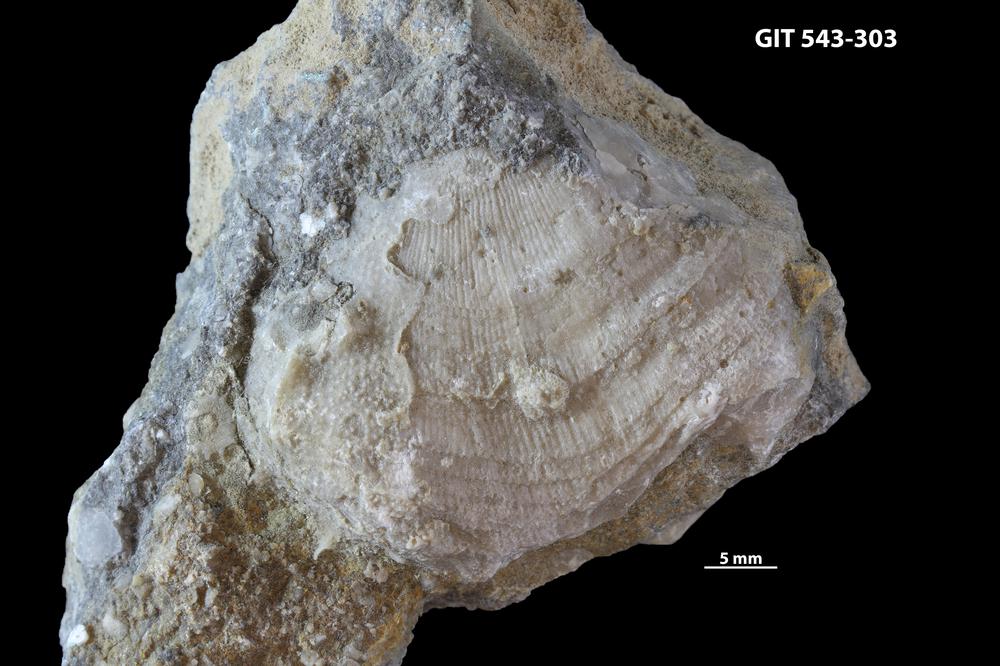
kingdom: Animalia
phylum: Brachiopoda
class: Rhynchonellata
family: Clitambonitidae
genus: Ilmarinia
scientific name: Ilmarinia dimorpha
